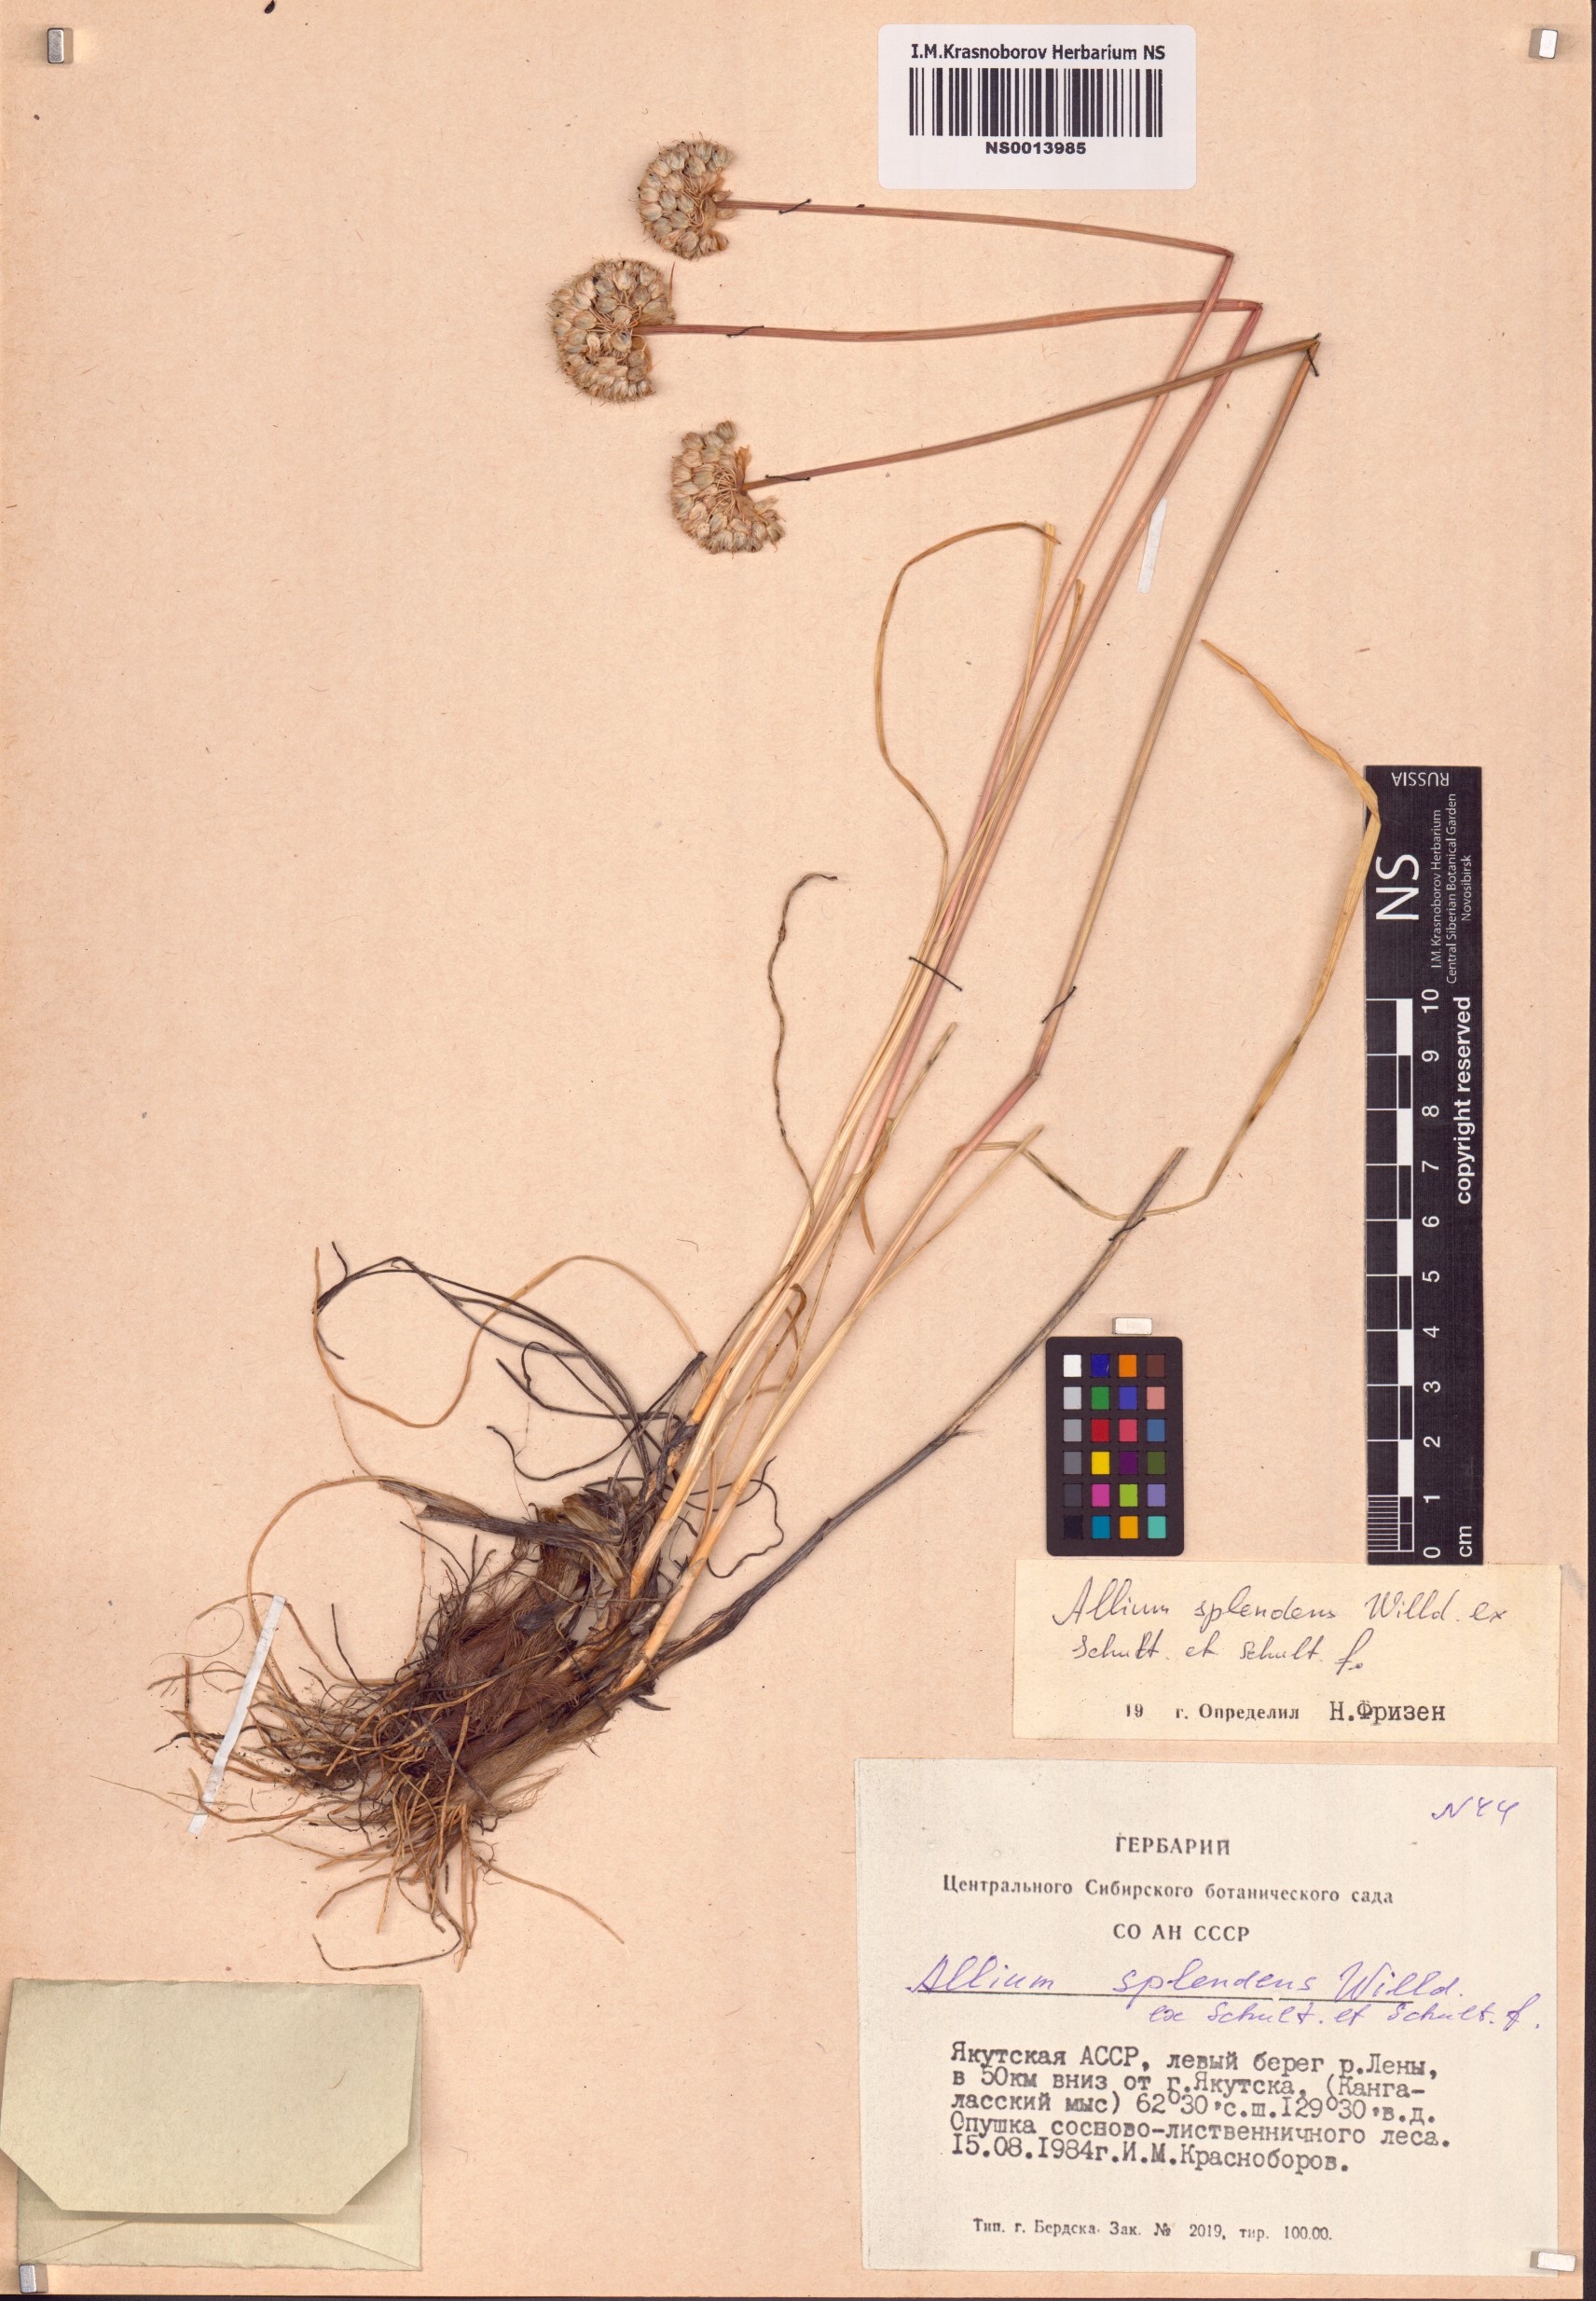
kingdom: Plantae
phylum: Tracheophyta
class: Liliopsida
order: Asparagales
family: Amaryllidaceae
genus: Allium
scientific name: Allium splendens
